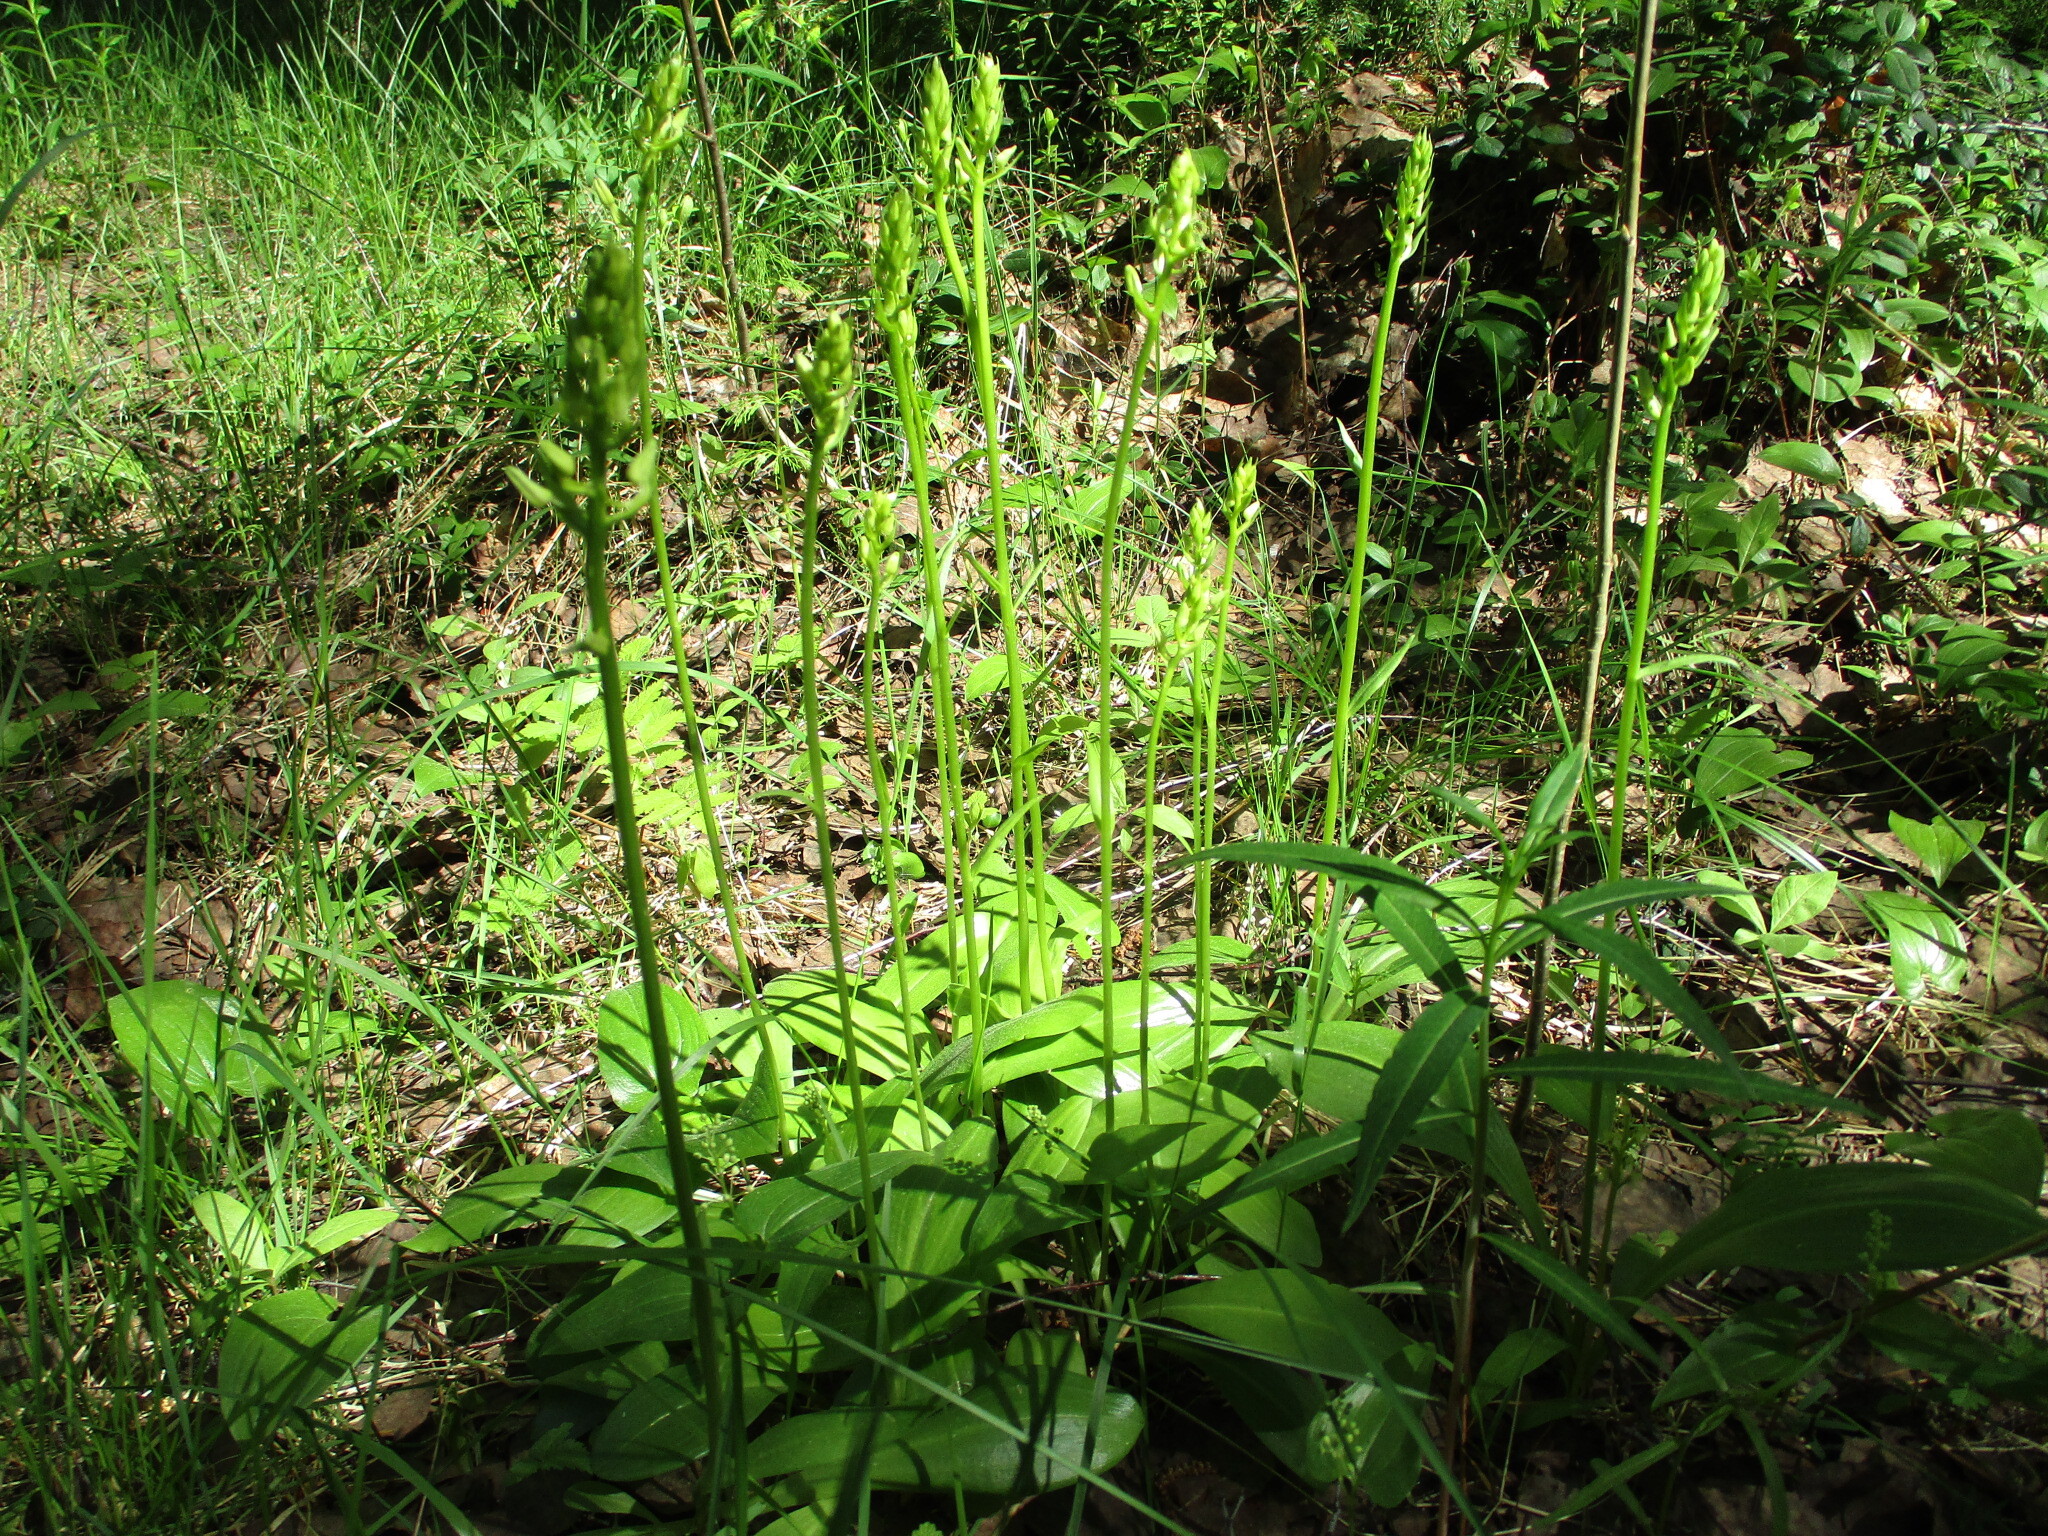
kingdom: Plantae
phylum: Tracheophyta
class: Liliopsida
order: Asparagales
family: Orchidaceae
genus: Platanthera
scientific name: Platanthera bifolia
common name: Lesser butterfly-orchid
